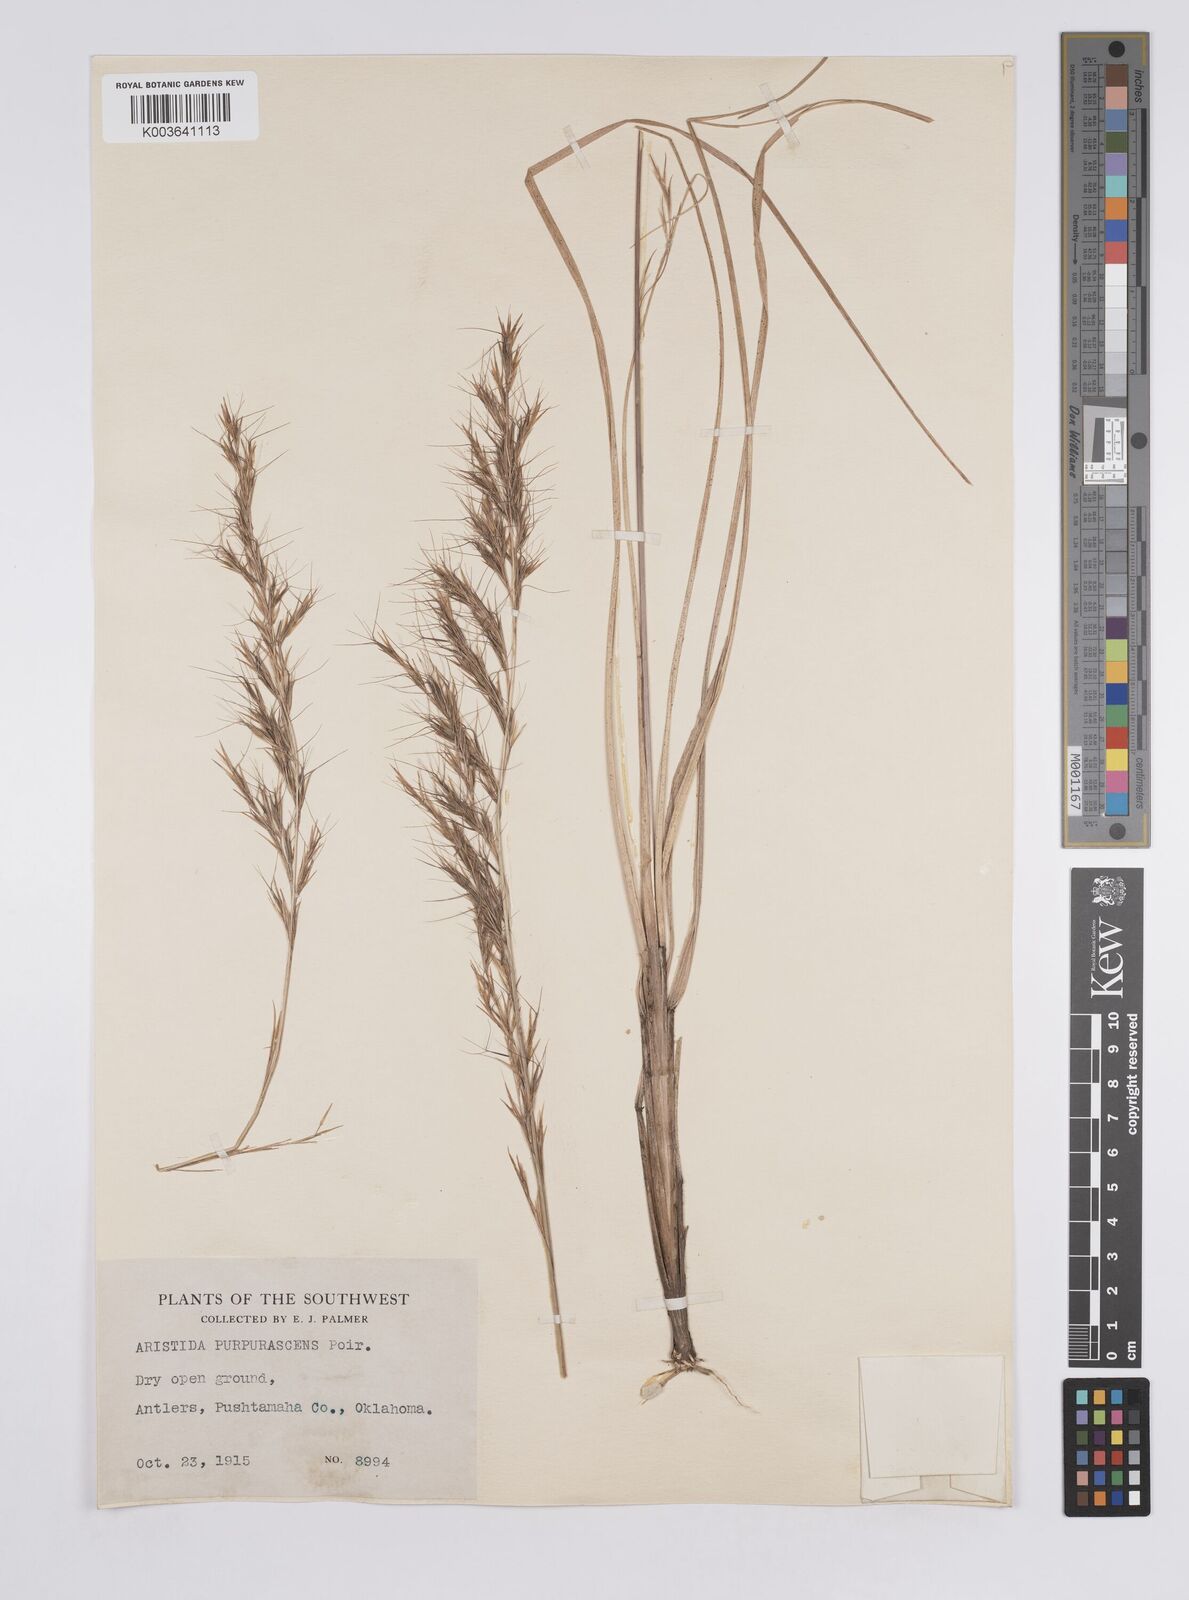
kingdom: Plantae
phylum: Tracheophyta
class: Liliopsida
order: Poales
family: Poaceae
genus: Aristida
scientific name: Aristida purpurascens
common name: Arrow-feather
